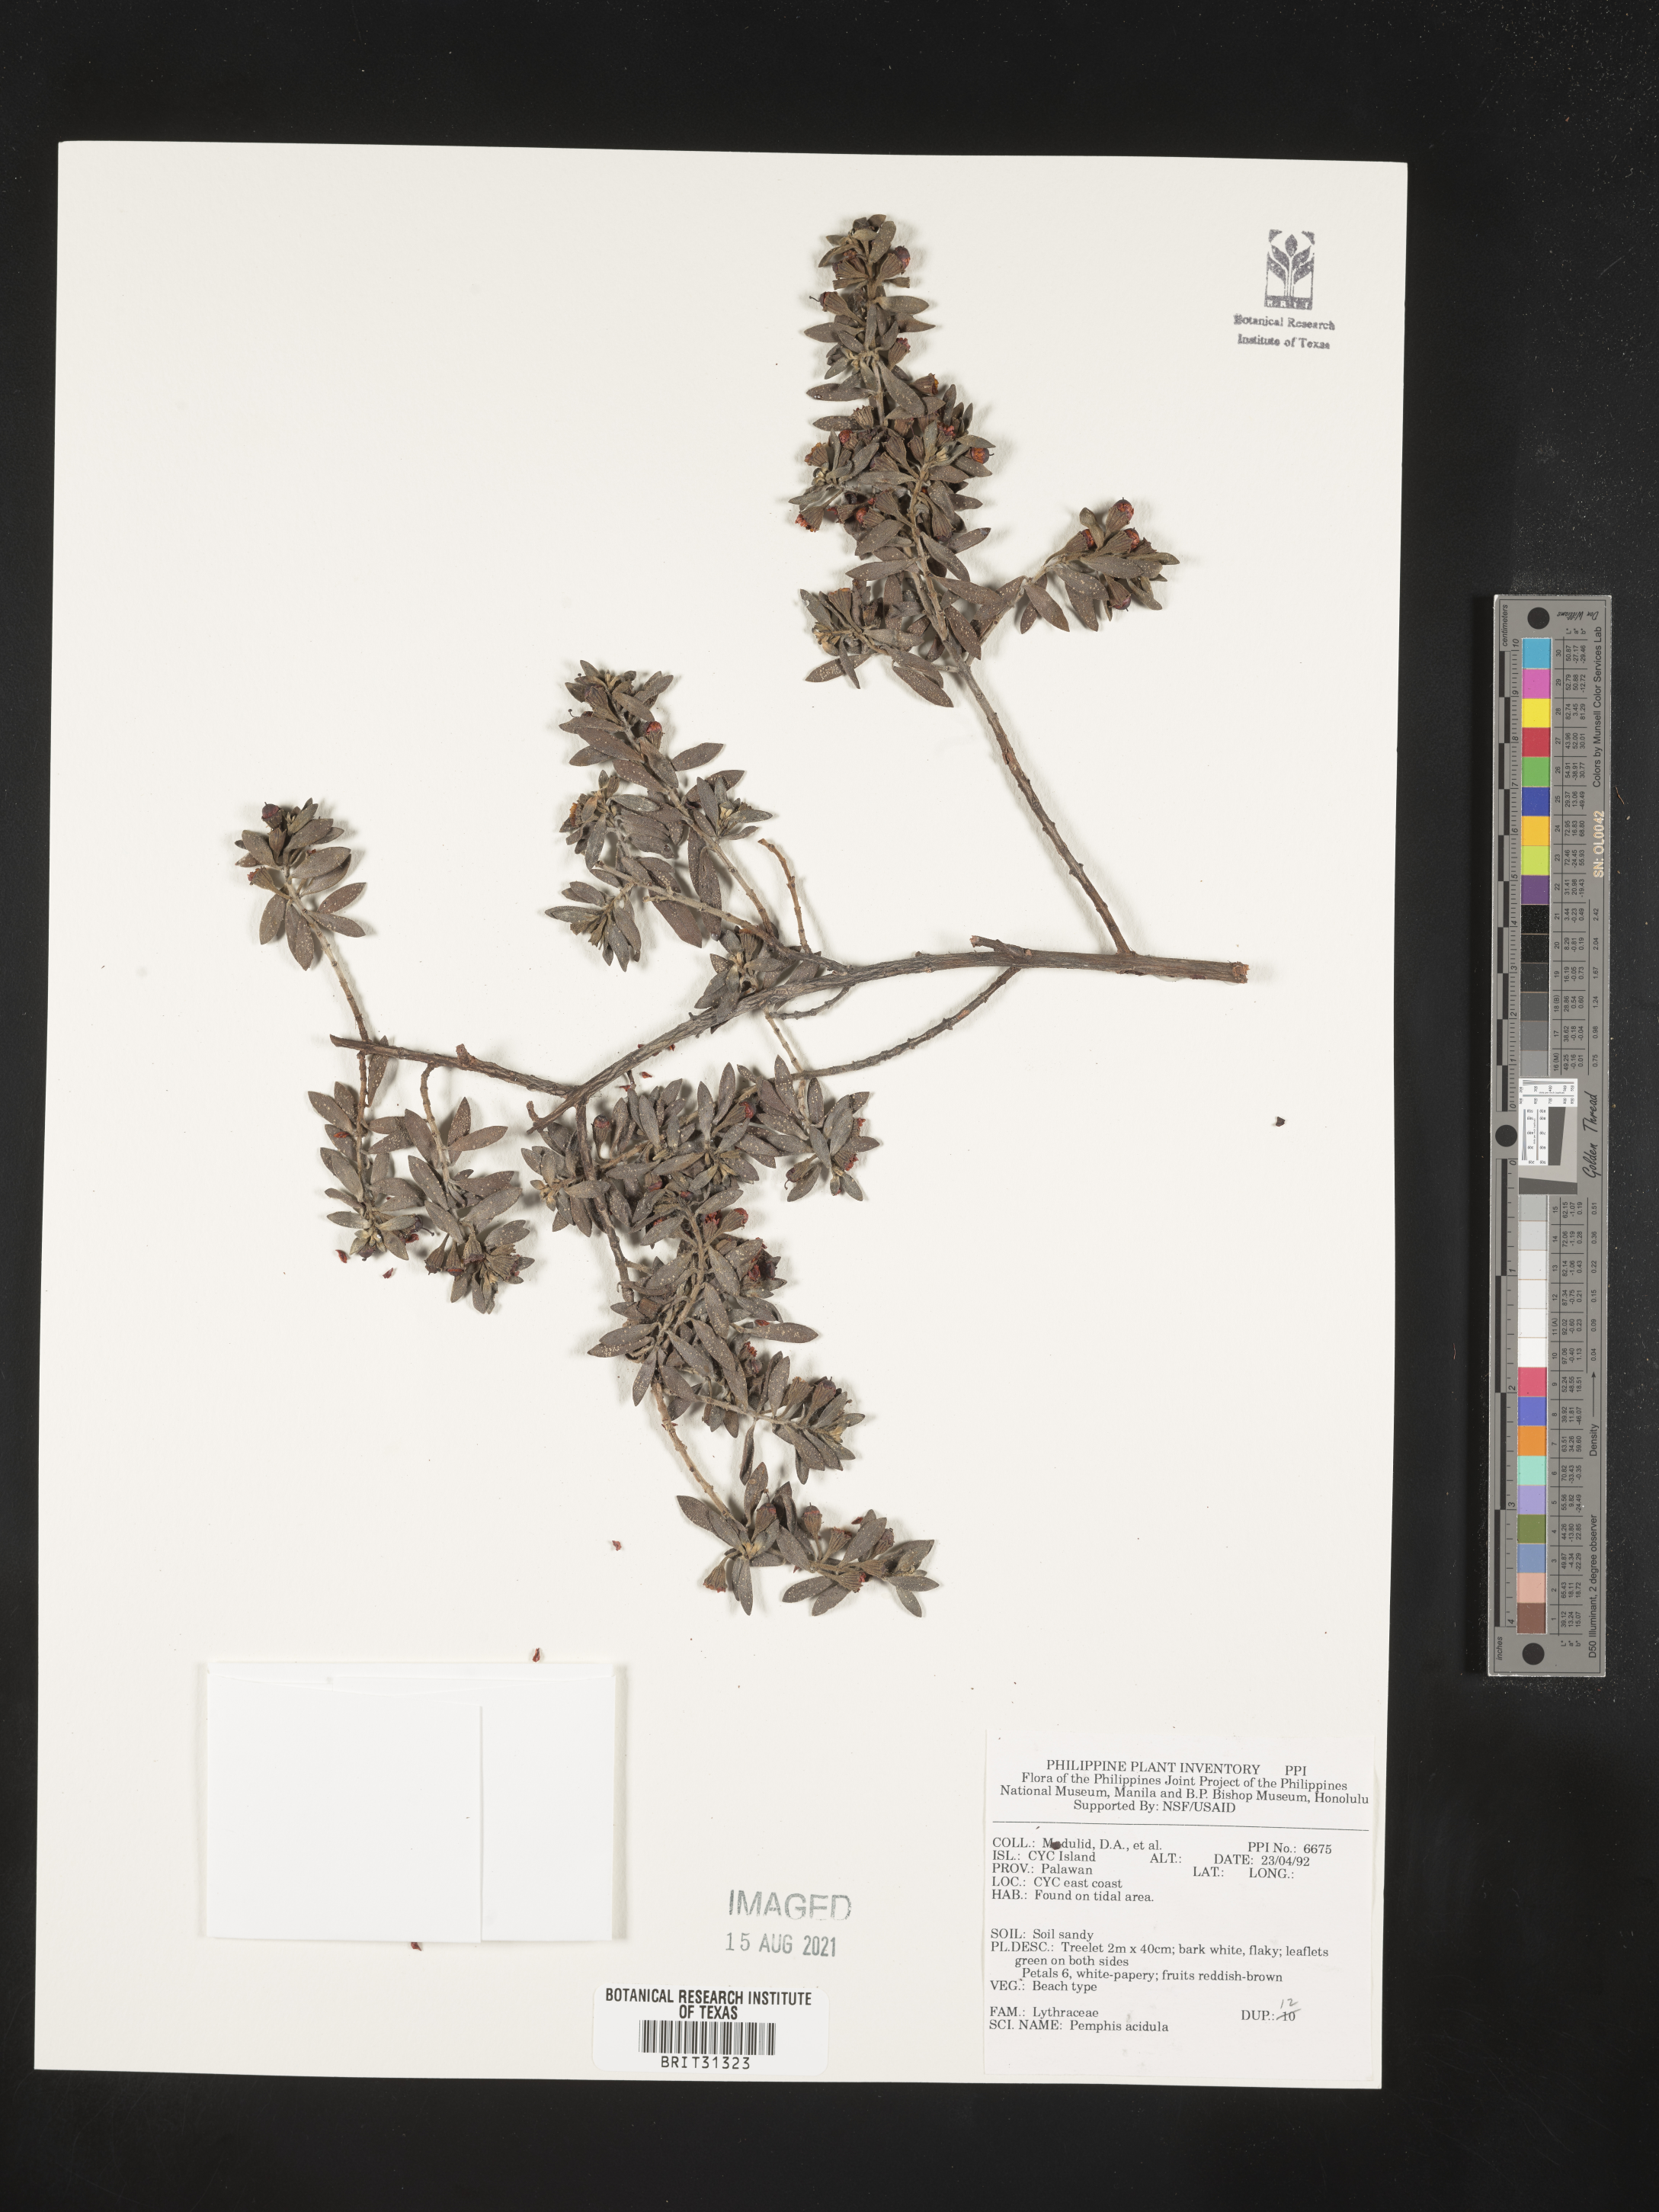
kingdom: Plantae
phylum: Tracheophyta
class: Magnoliopsida
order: Myrtales
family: Lythraceae
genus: Pemphis
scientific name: Pemphis acidula
